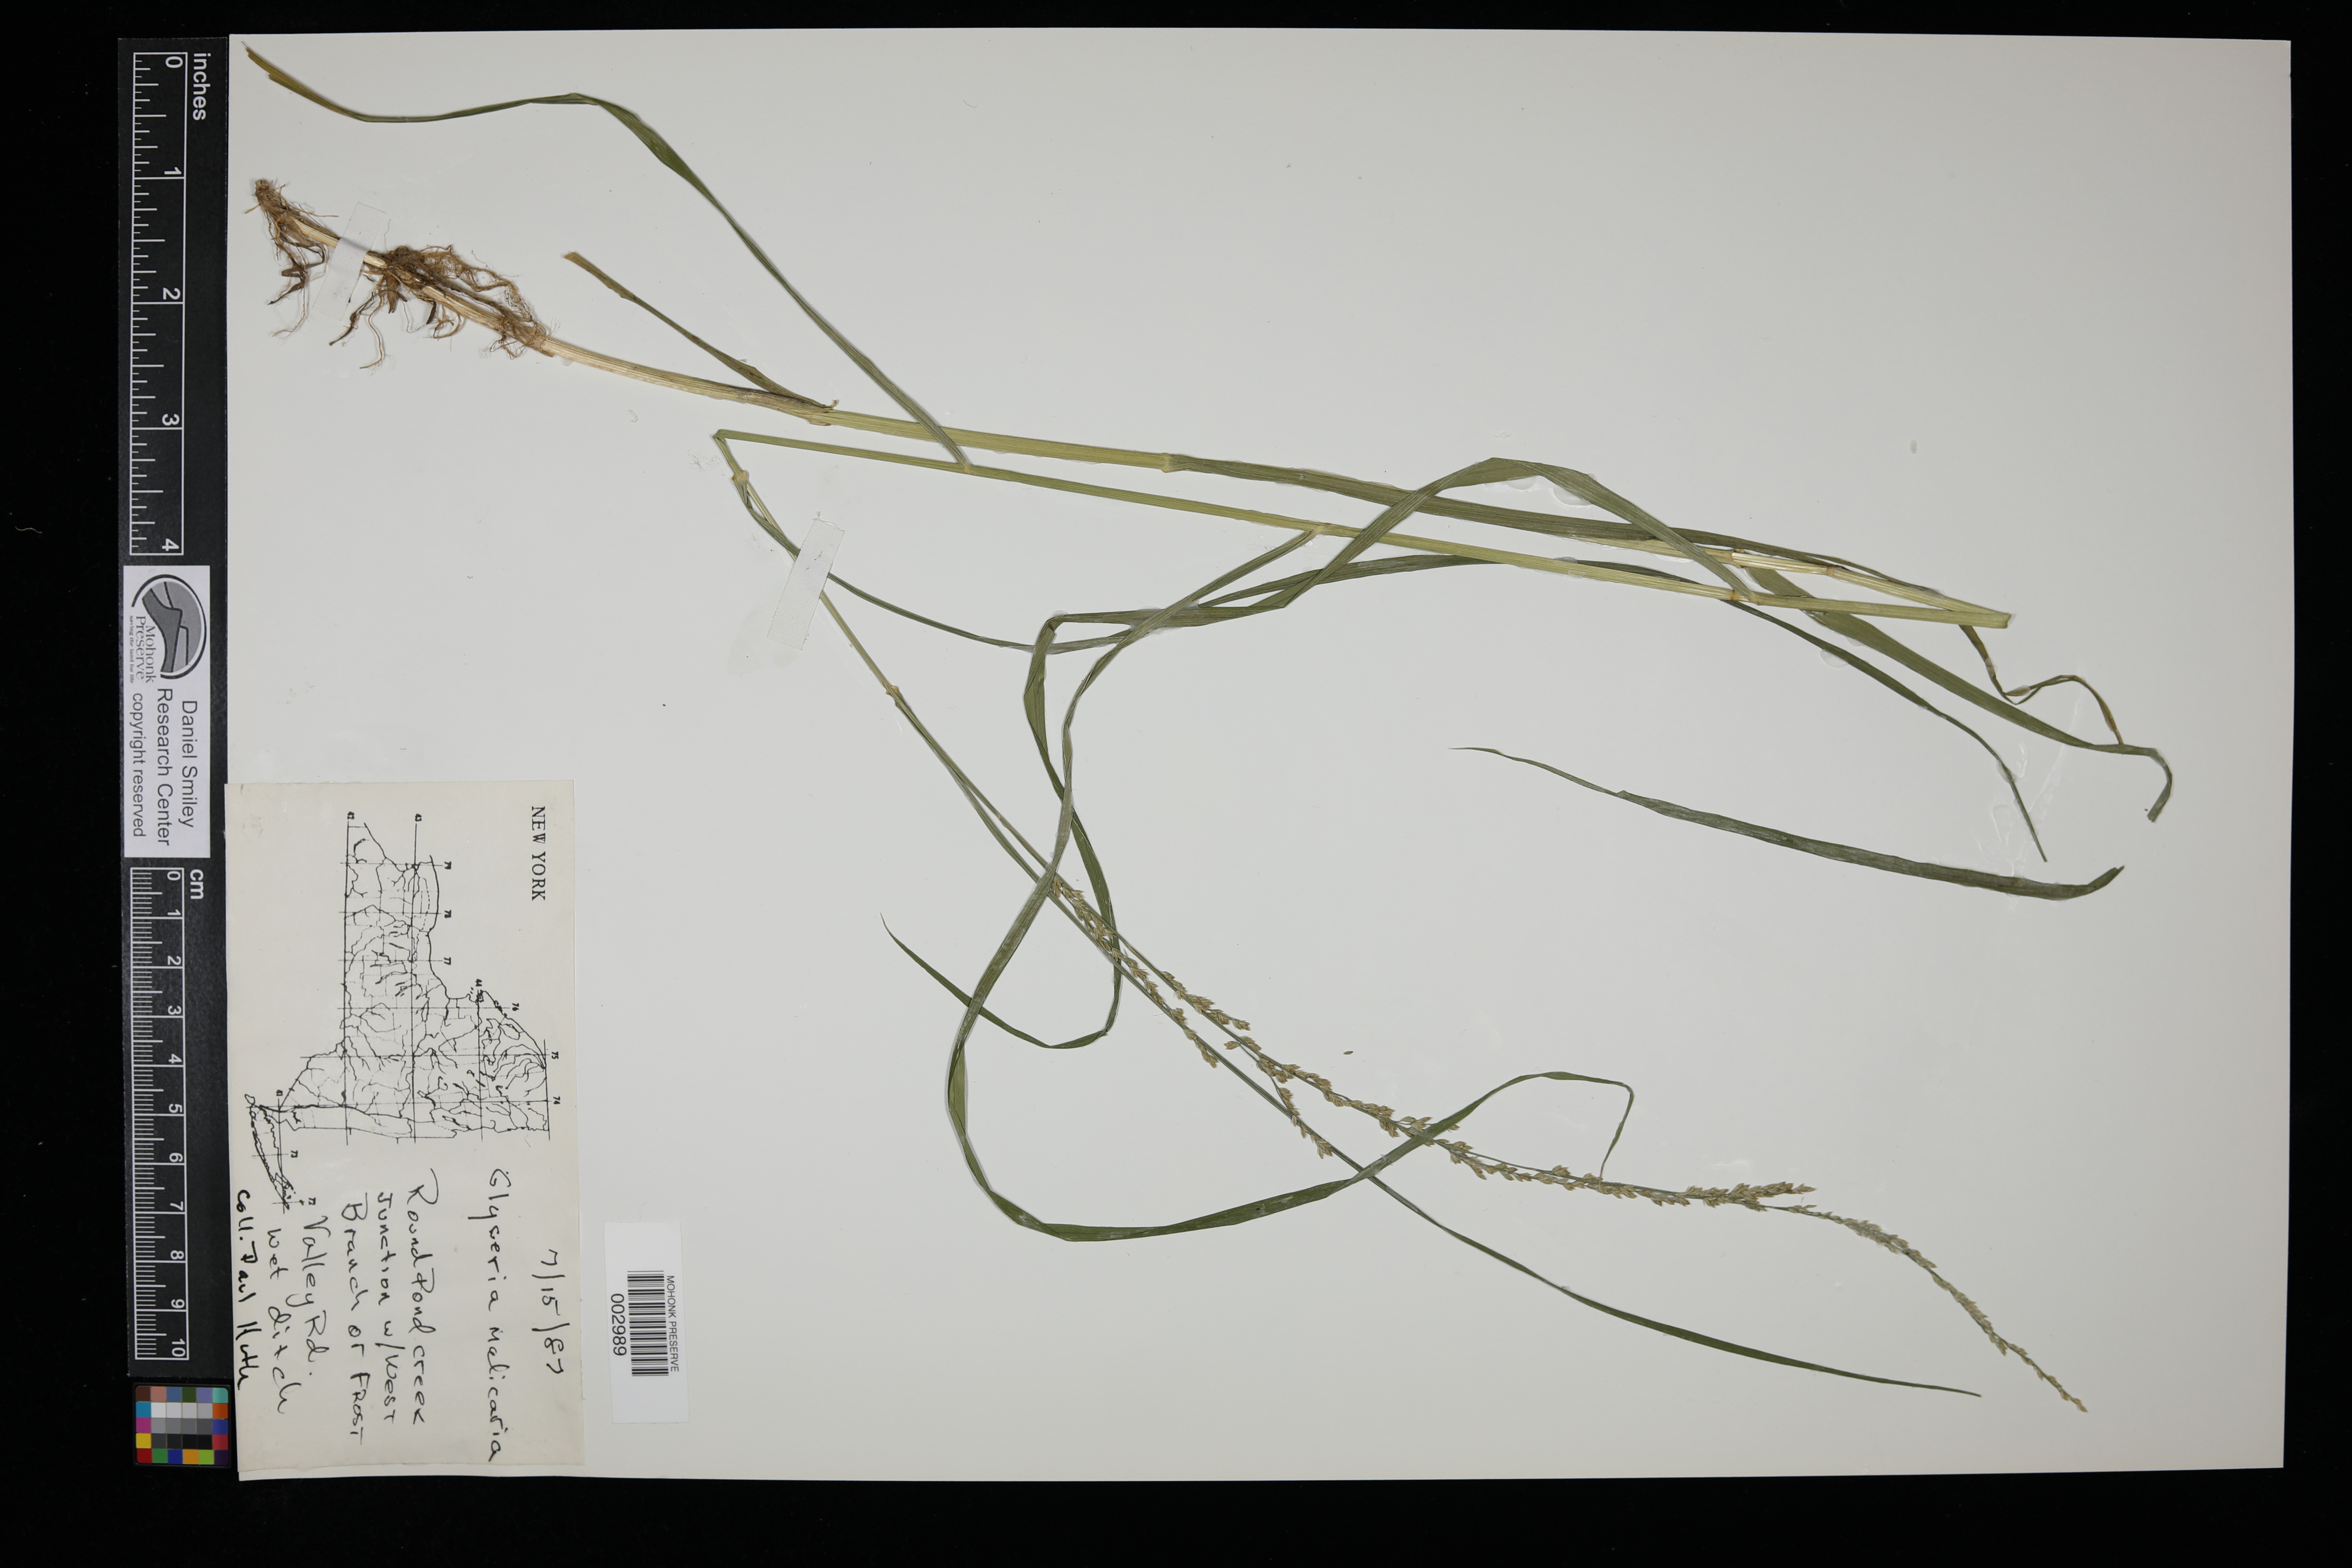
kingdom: Plantae
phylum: Tracheophyta
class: Liliopsida
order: Poales
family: Poaceae
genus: Glyceria
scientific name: Glyceria melicaria
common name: Long mannagrass
